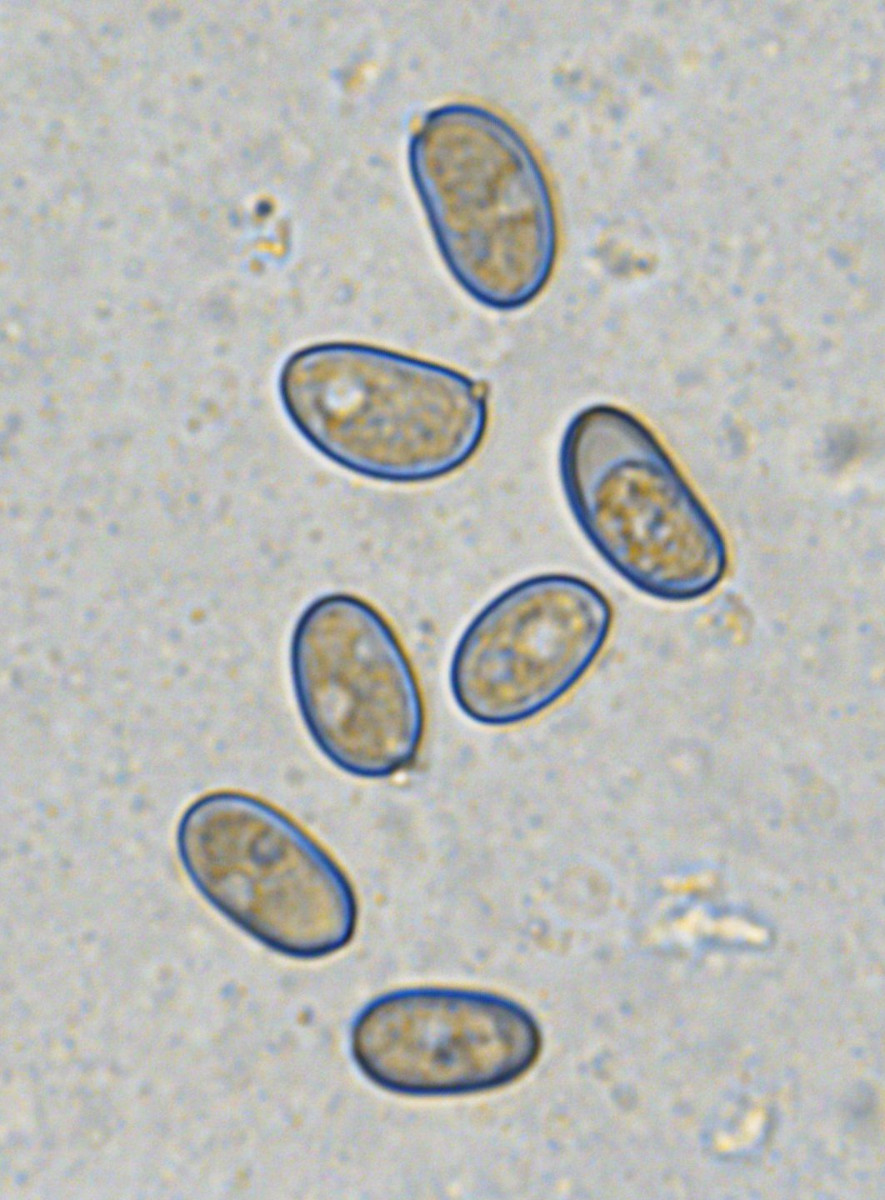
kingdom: Fungi
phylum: Basidiomycota
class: Agaricomycetes
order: Agaricales
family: Inocybaceae
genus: Pseudosperma
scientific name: Pseudosperma
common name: trævlhat
